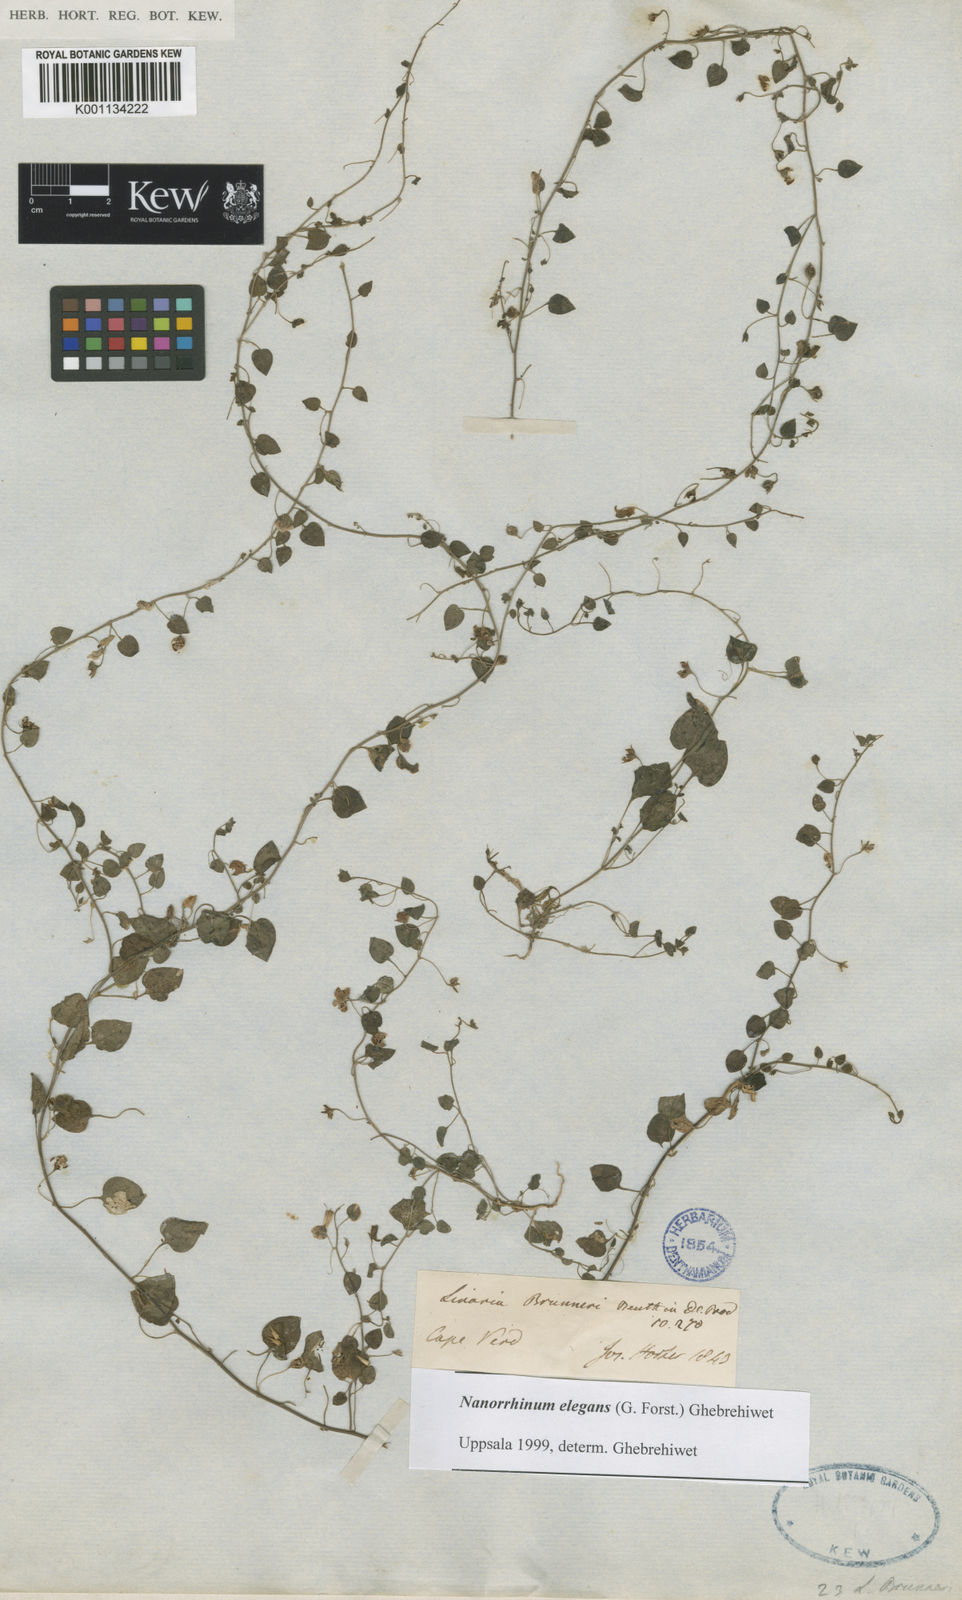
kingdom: Plantae
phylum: Tracheophyta
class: Magnoliopsida
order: Lamiales
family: Plantaginaceae
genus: Nanorrhinum
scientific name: Nanorrhinum elegans
